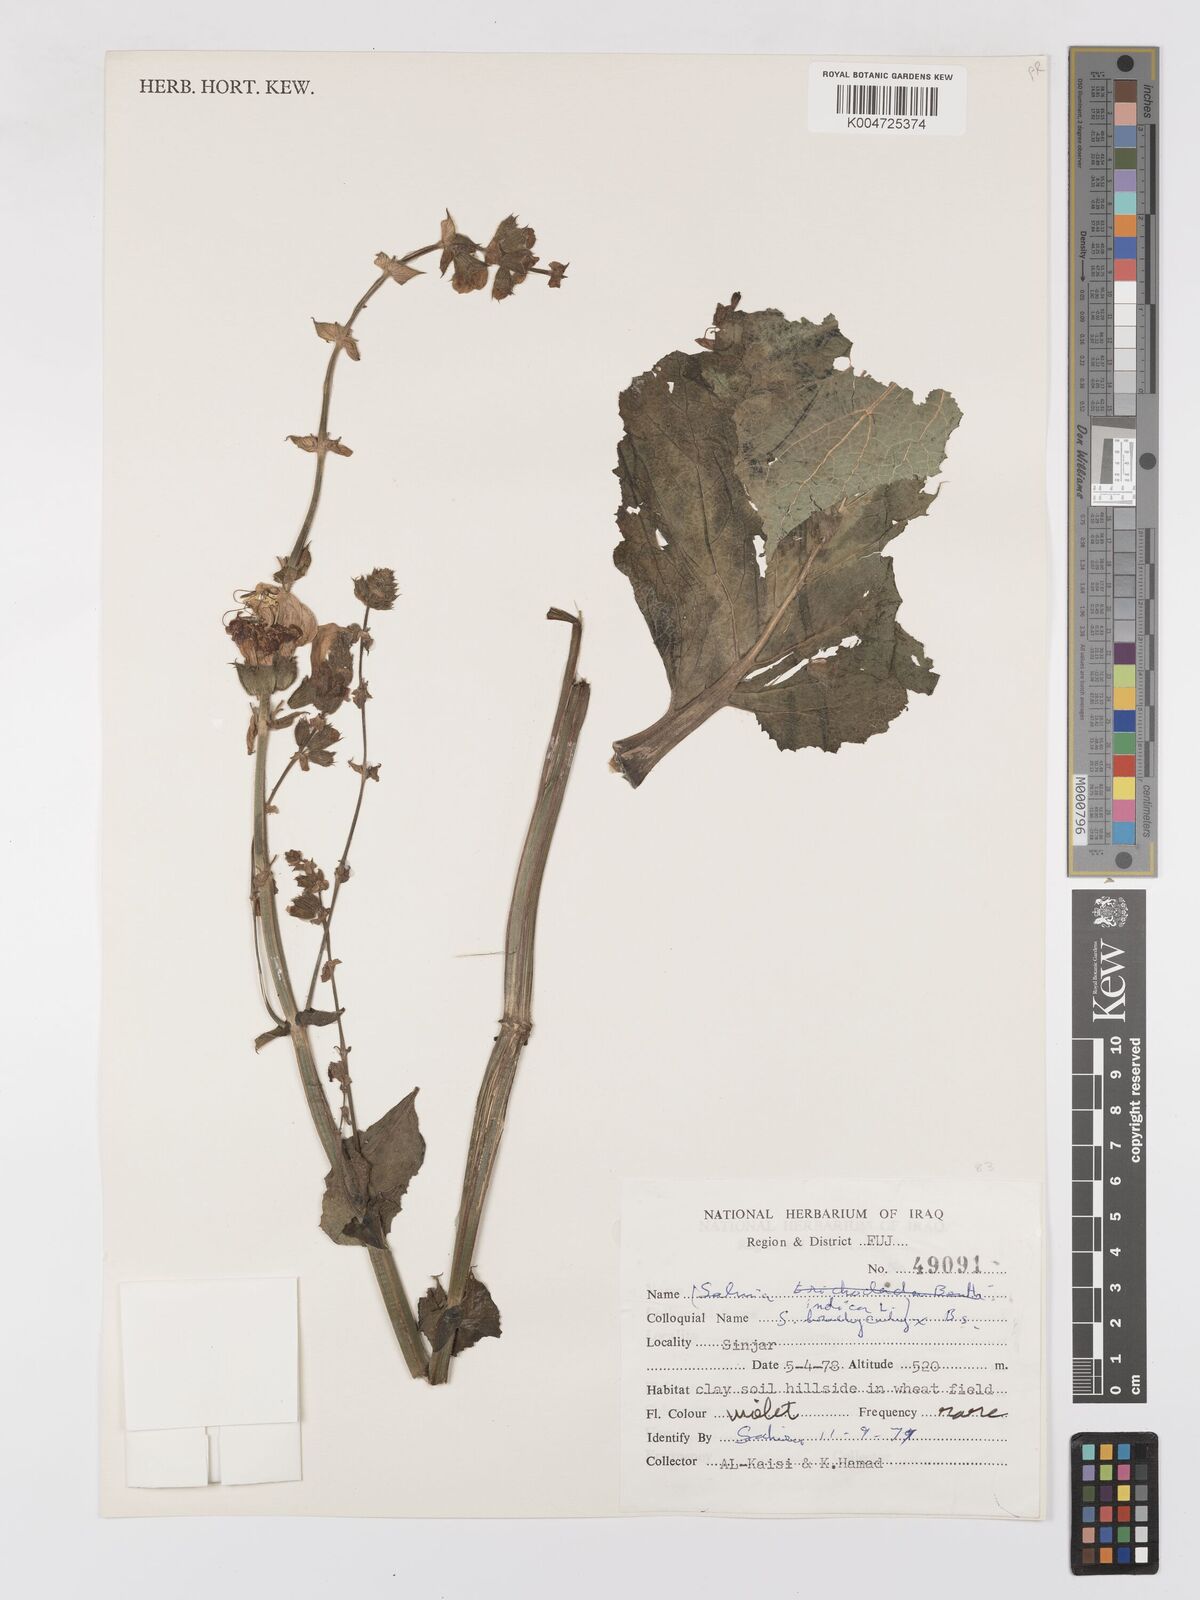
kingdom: Plantae
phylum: Tracheophyta
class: Magnoliopsida
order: Lamiales
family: Lamiaceae
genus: Salvia
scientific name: Salvia indica
